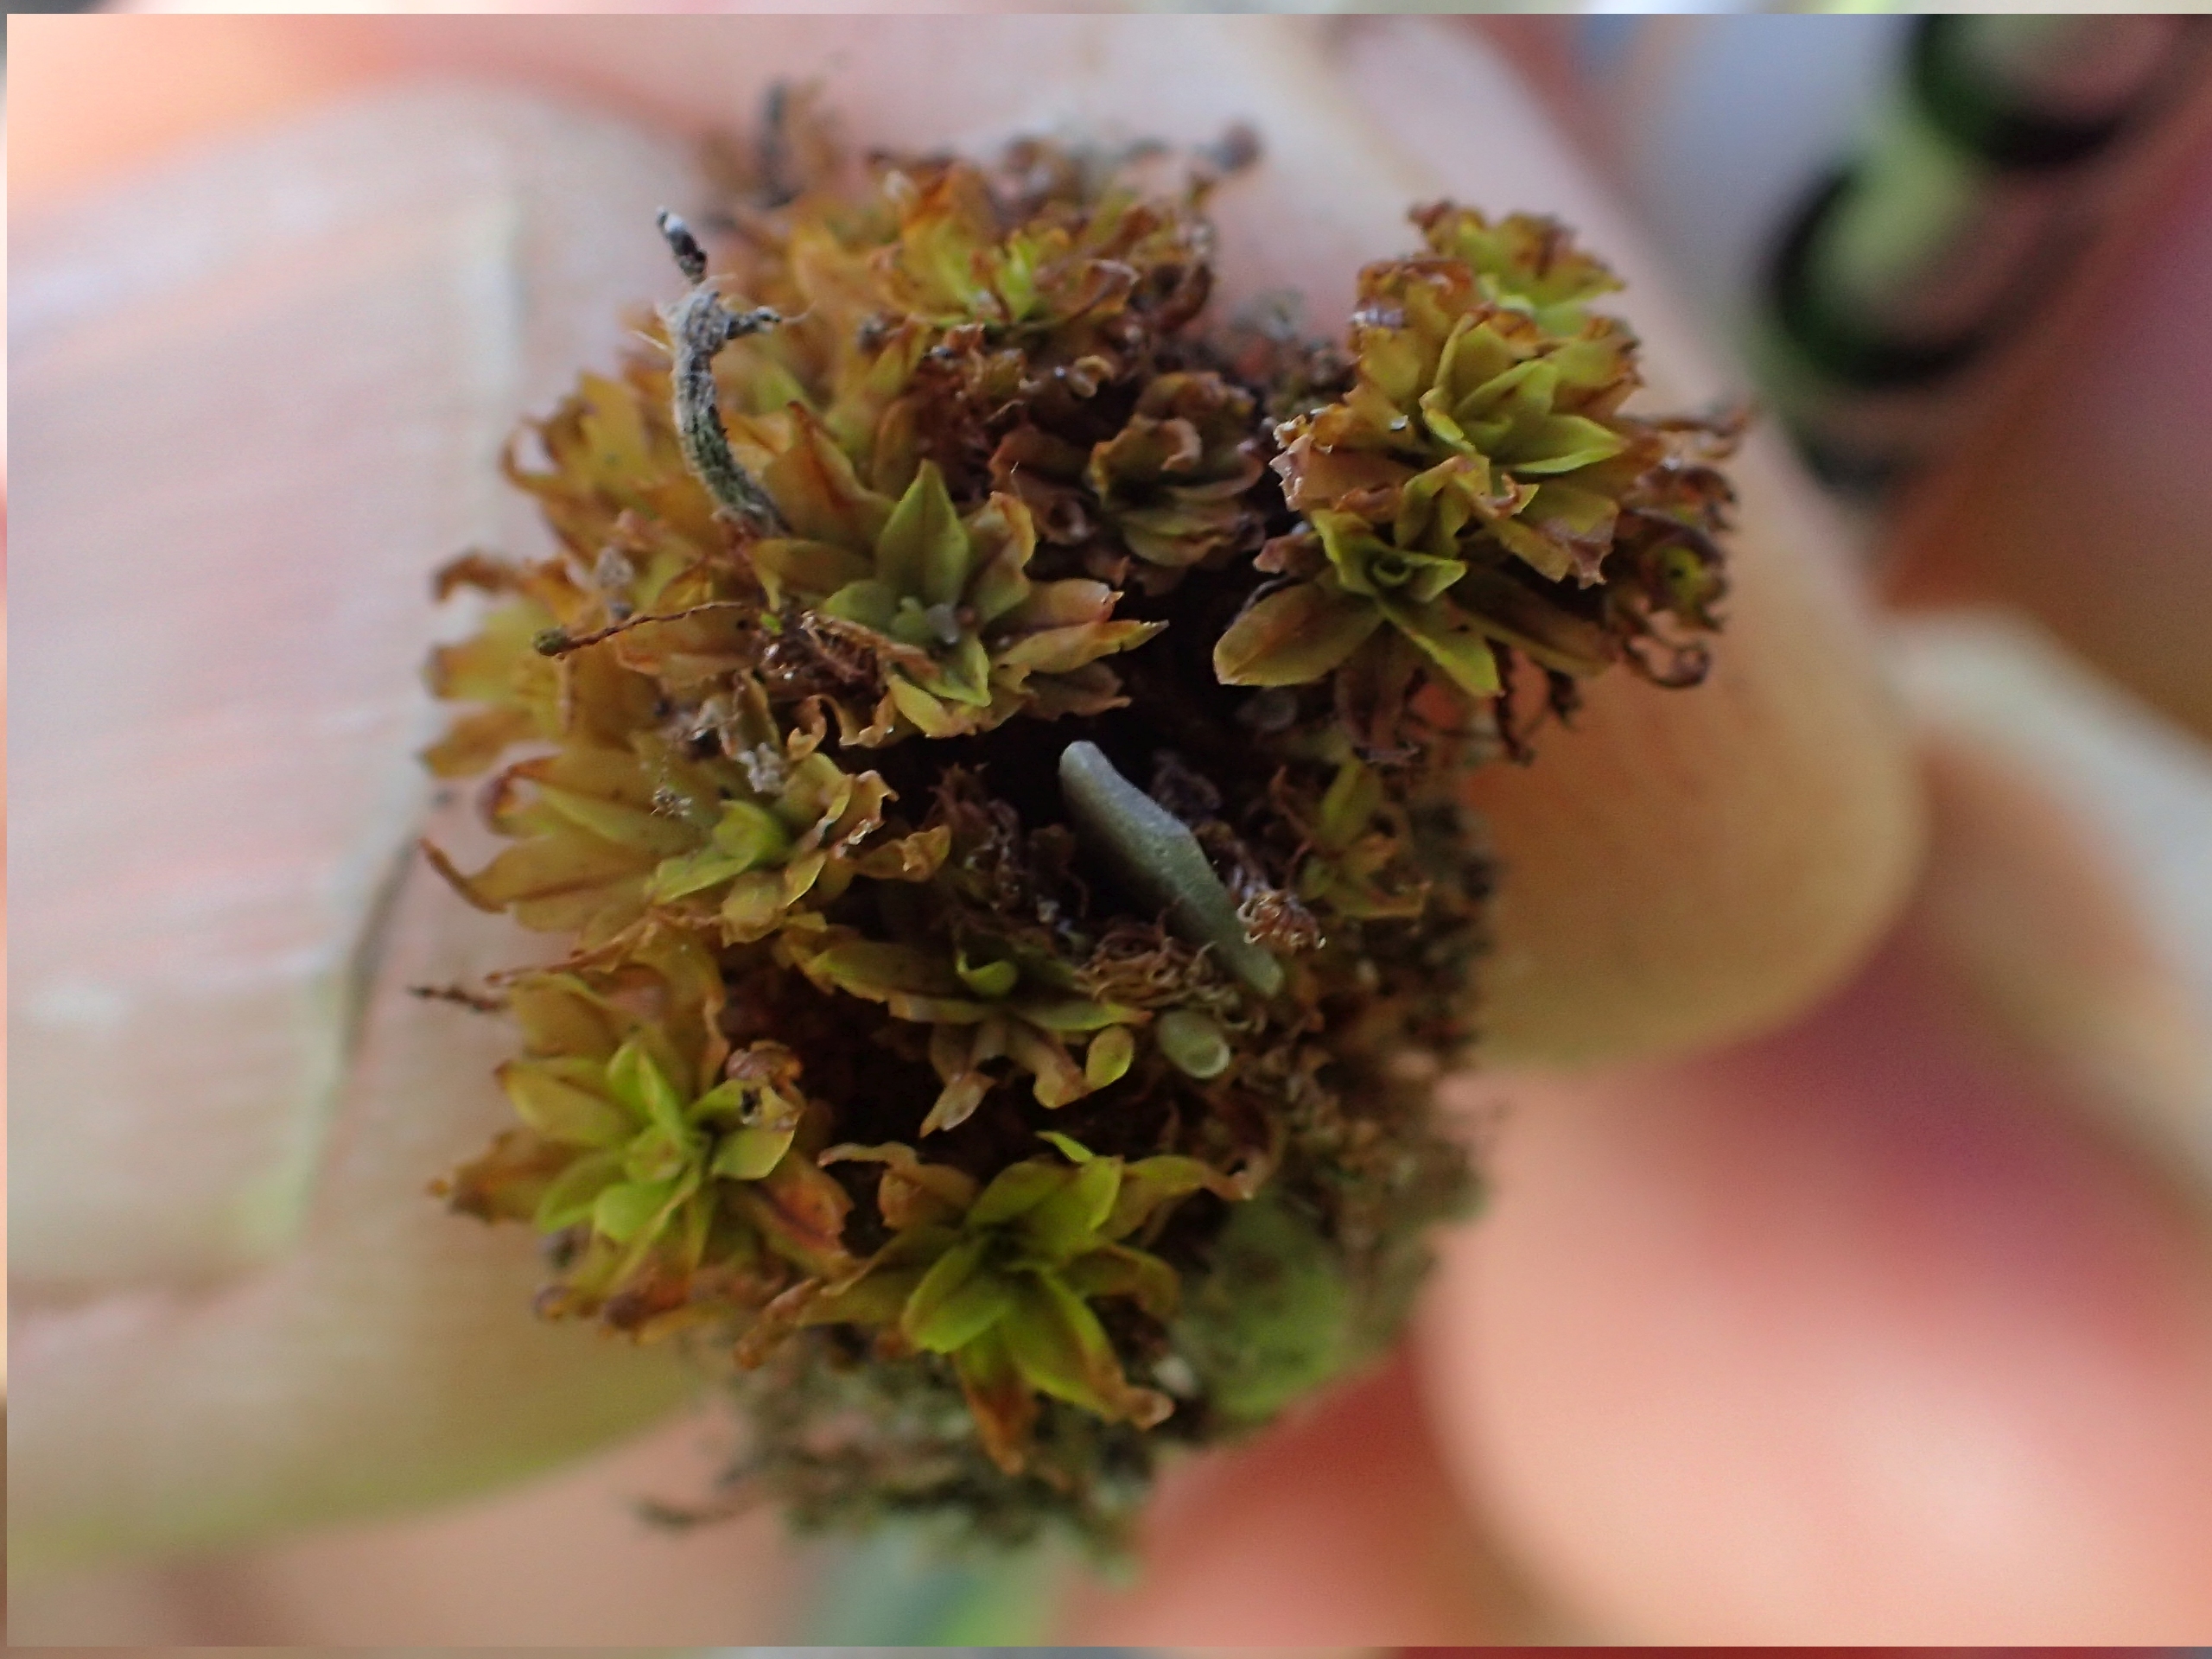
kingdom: Plantae
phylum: Bryophyta
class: Bryopsida
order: Encalyptales
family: Encalyptaceae
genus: Encalypta
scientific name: Encalypta streptocarpa
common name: Stor klokkehætte
